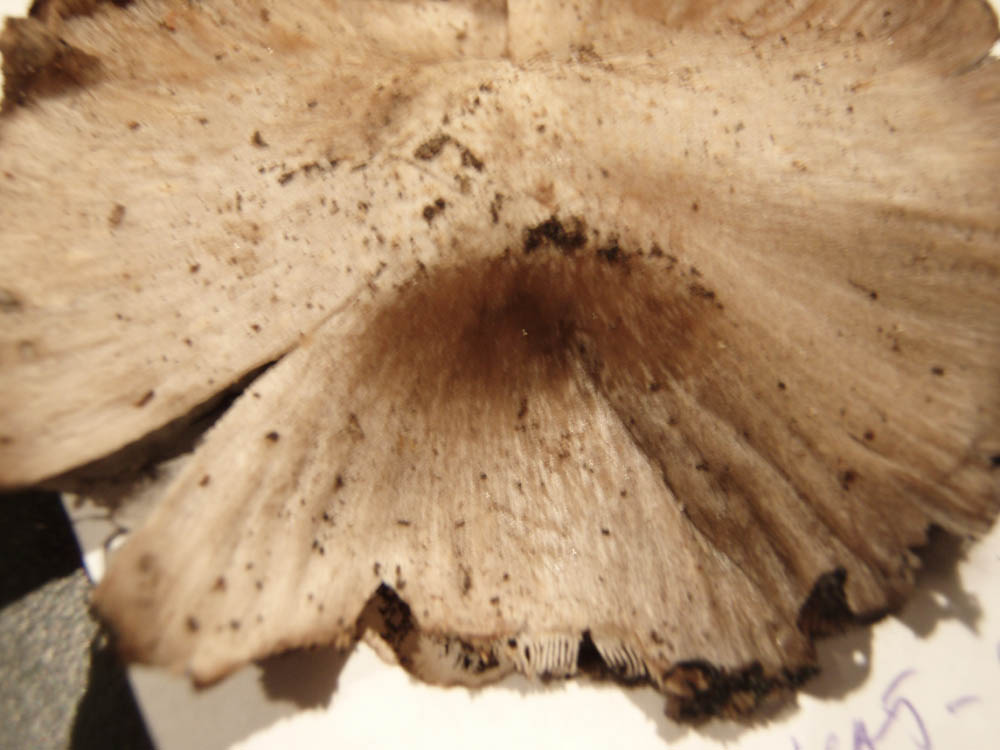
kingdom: Fungi
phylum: Basidiomycota
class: Agaricomycetes
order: Agaricales
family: Psathyrellaceae
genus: Coprinopsis
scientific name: Coprinopsis atramentaria
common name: almindelig blækhat
